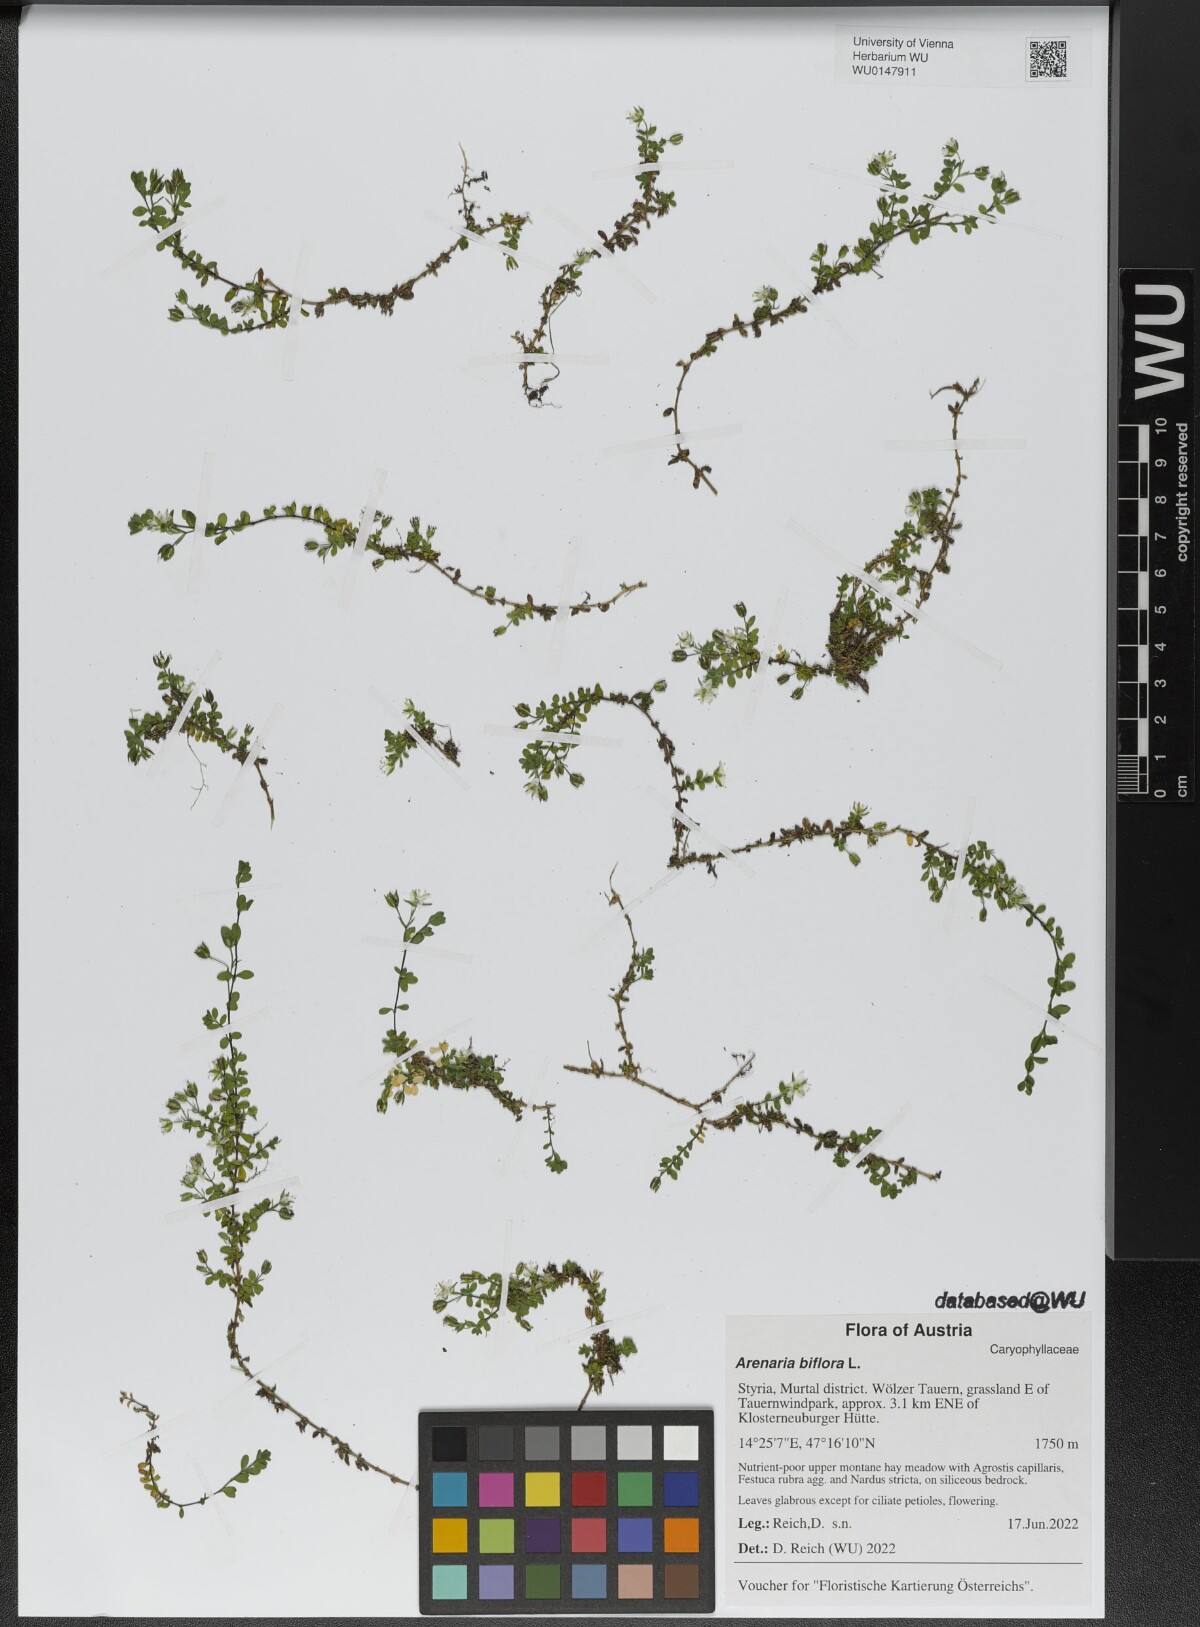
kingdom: Plantae
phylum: Tracheophyta
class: Magnoliopsida
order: Caryophyllales
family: Caryophyllaceae
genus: Arenaria
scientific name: Arenaria biflora
